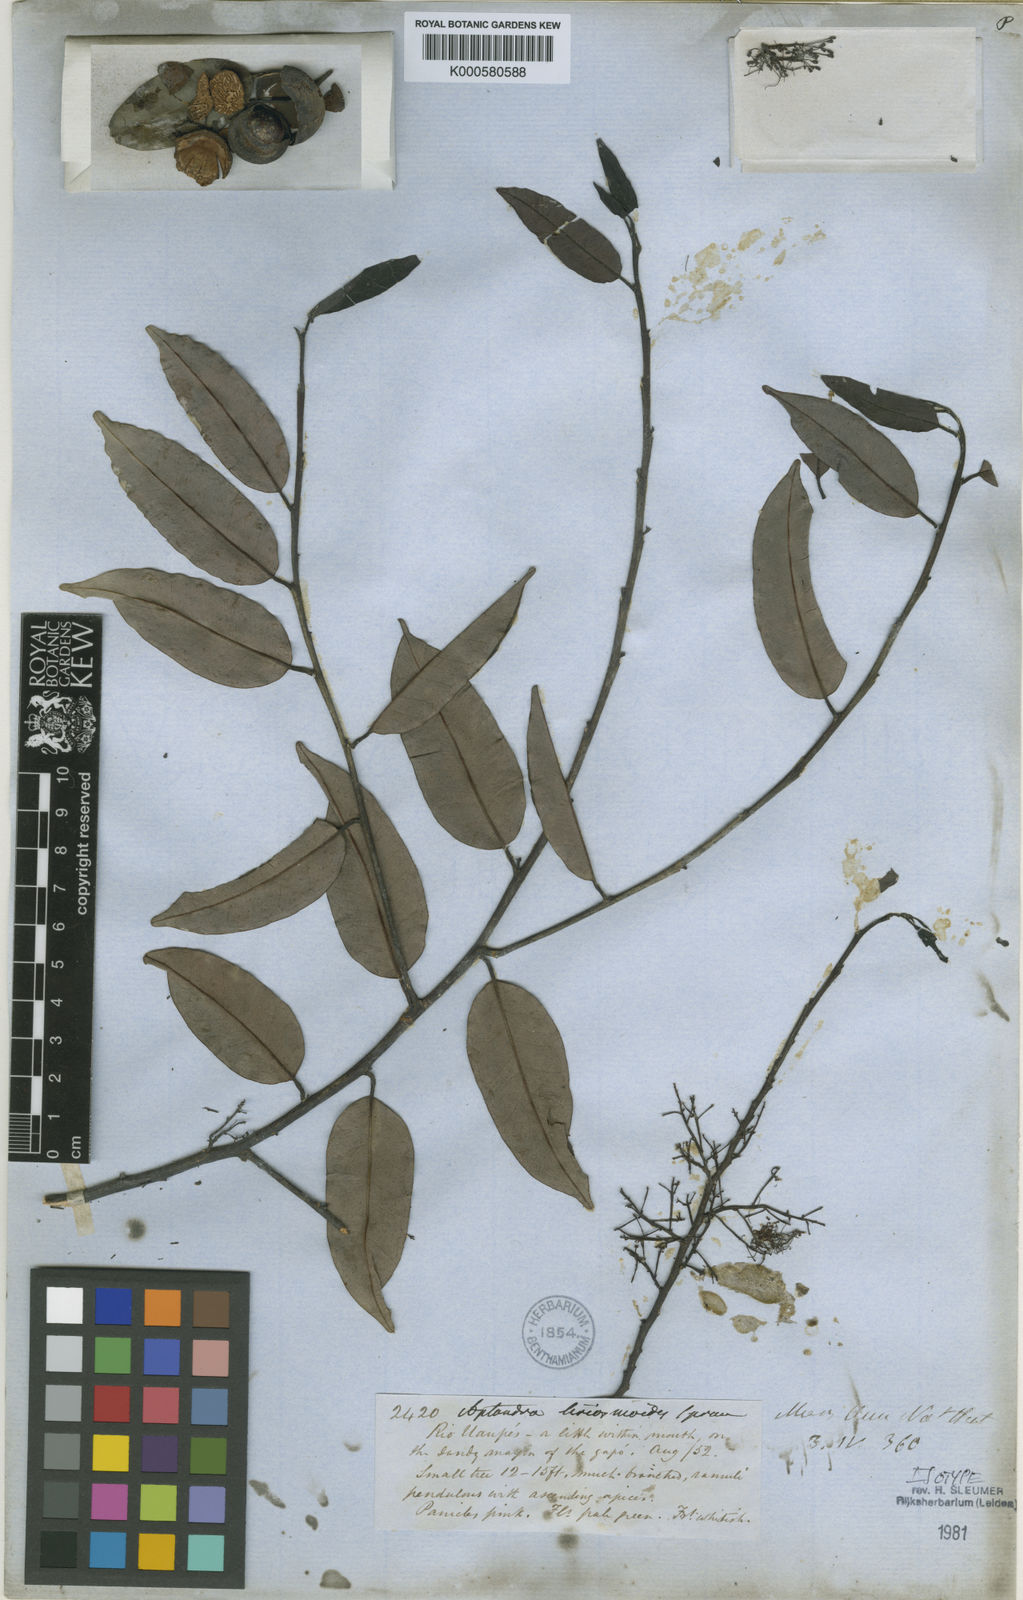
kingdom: Plantae
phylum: Tracheophyta
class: Magnoliopsida
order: Santalales
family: Aptandraceae
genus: Aptandra
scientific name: Aptandra liriosmoides
